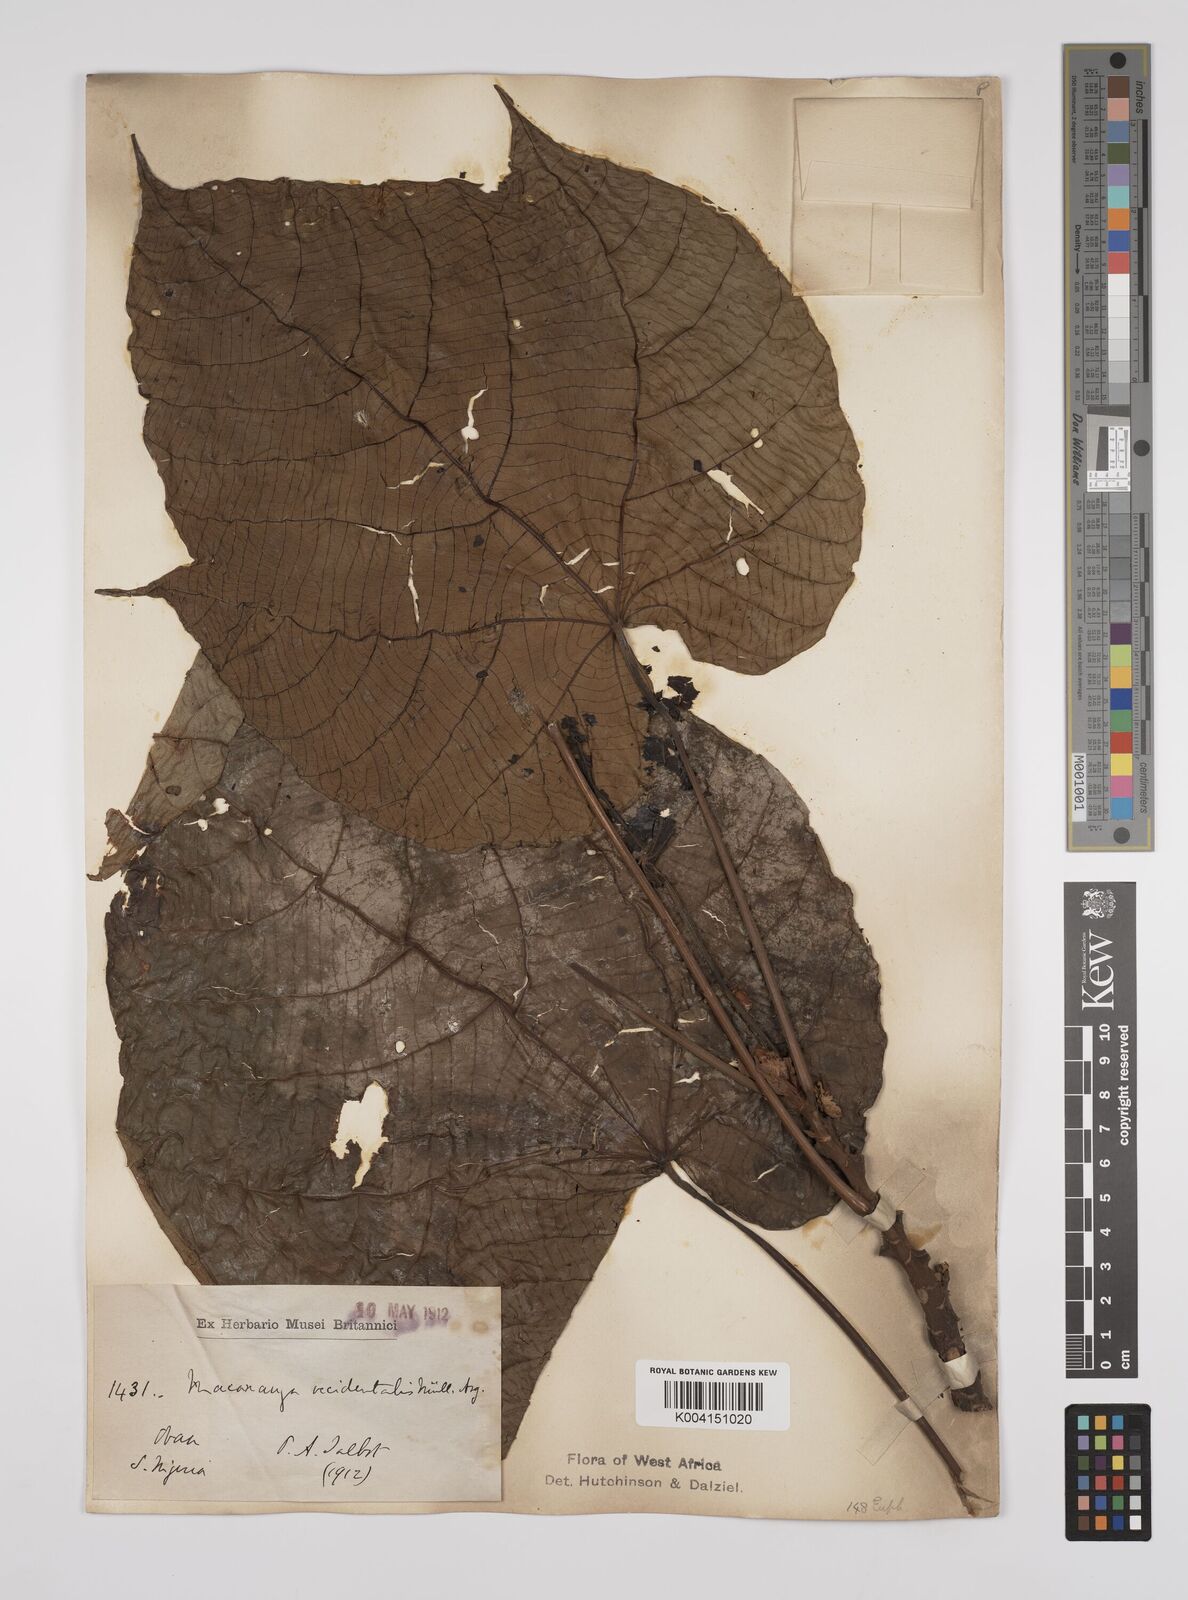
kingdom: Plantae
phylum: Tracheophyta
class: Magnoliopsida
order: Malpighiales
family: Euphorbiaceae
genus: Macaranga
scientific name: Macaranga occidentalis
